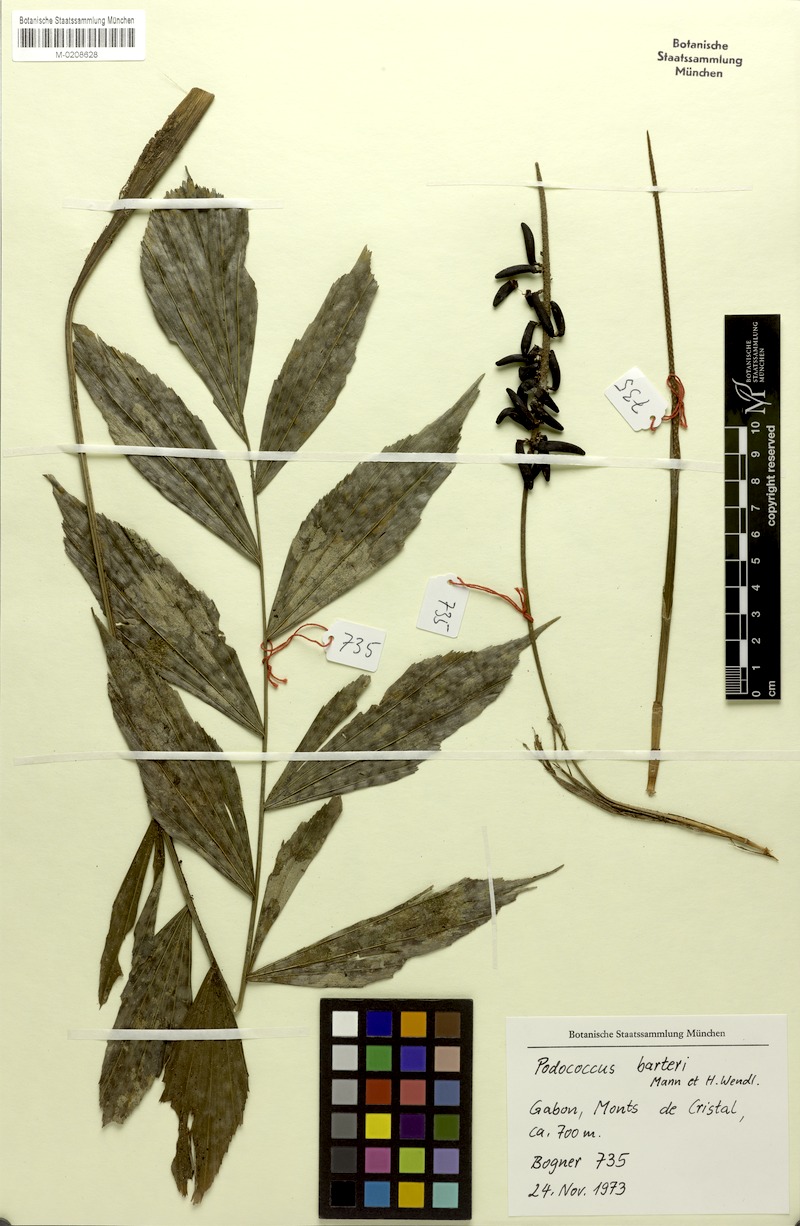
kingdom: Plantae
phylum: Tracheophyta
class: Liliopsida
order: Arecales
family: Arecaceae
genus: Podococcus
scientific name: Podococcus barteri
